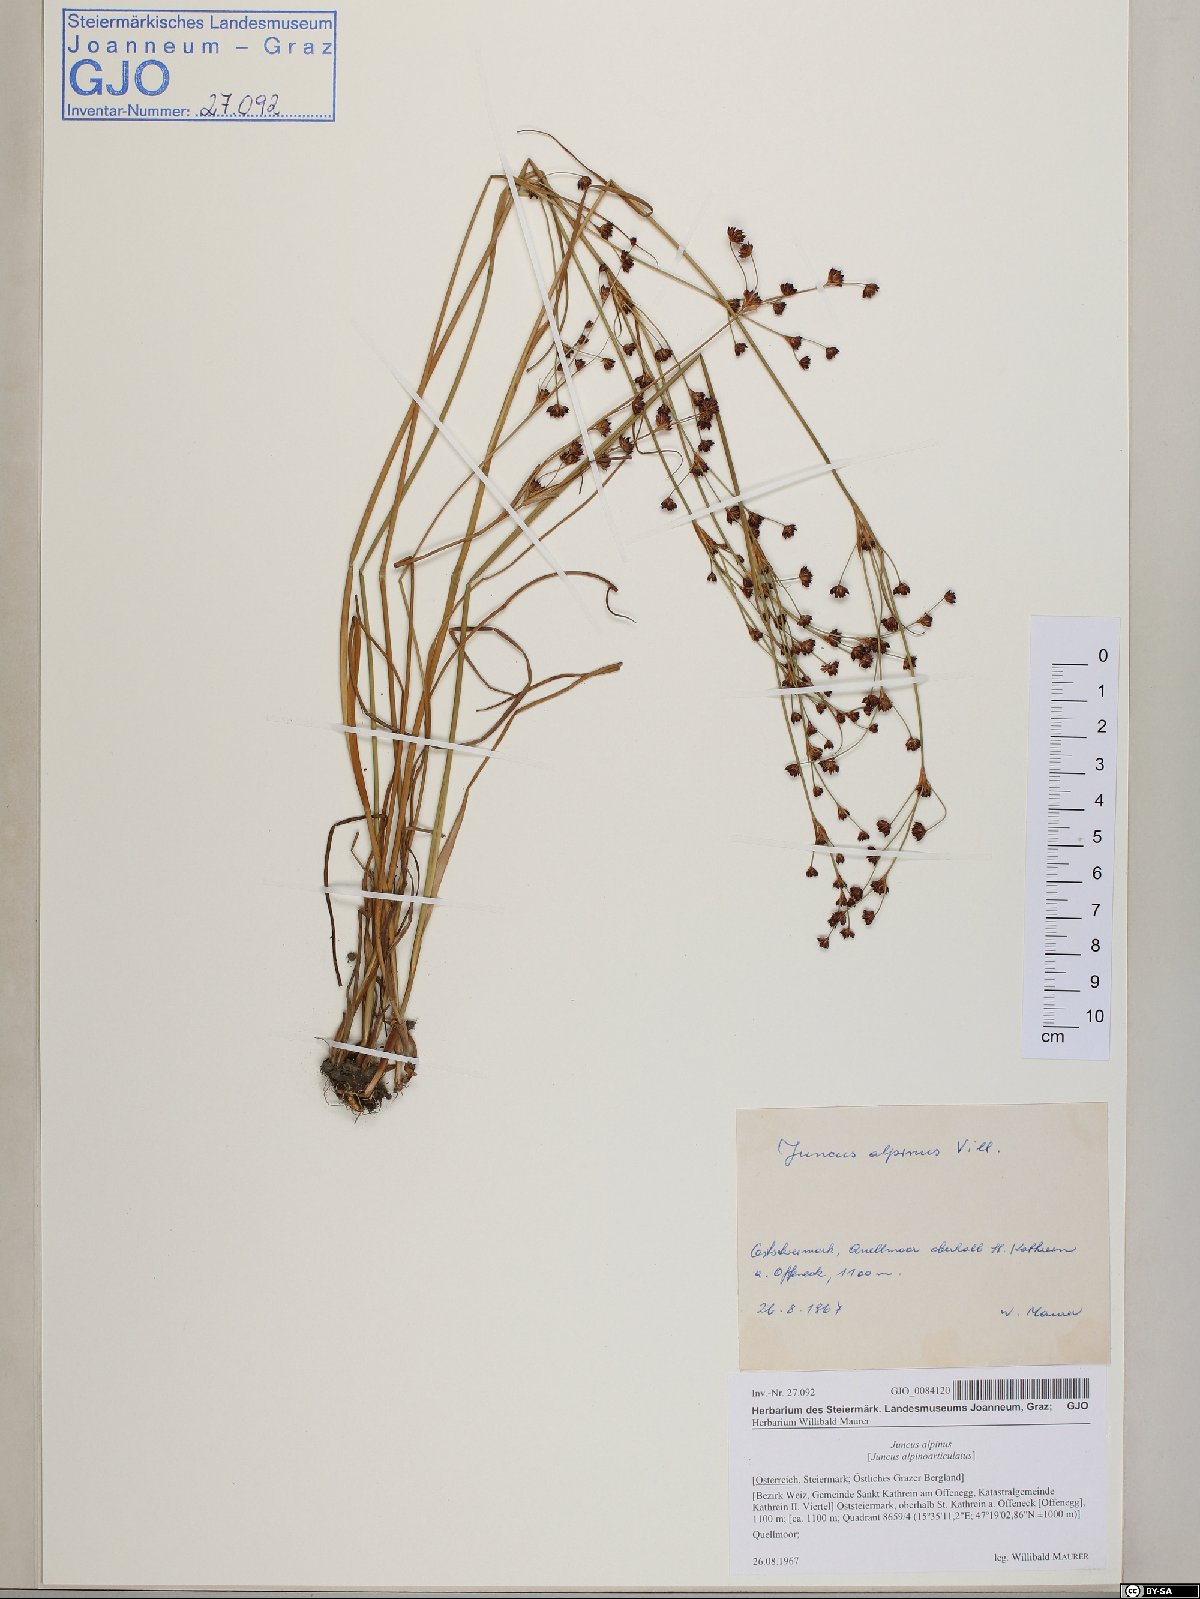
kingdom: Plantae
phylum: Tracheophyta
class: Liliopsida
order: Poales
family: Juncaceae
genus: Juncus
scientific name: Juncus alpinoarticulatus
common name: Alpine rush
